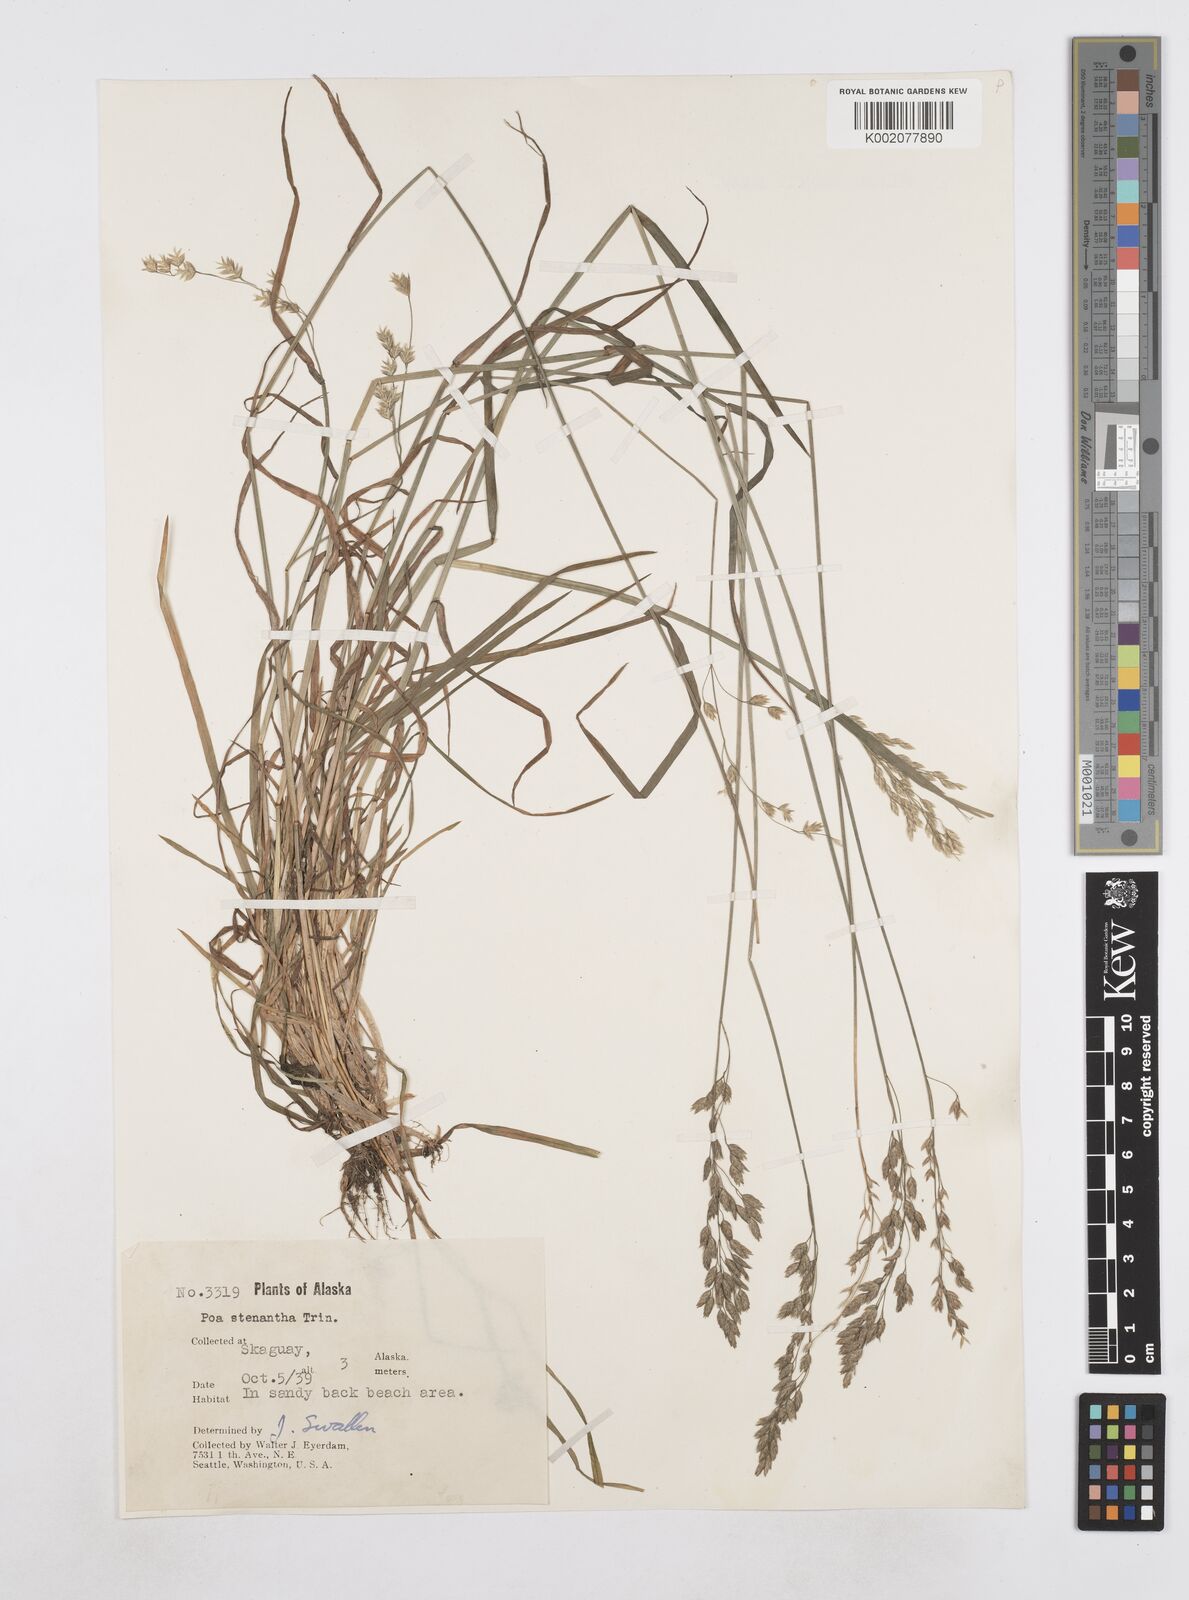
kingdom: Plantae
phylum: Tracheophyta
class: Liliopsida
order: Poales
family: Poaceae
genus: Poa
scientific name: Poa stenantha
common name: Narrow-flowered bluegrass
